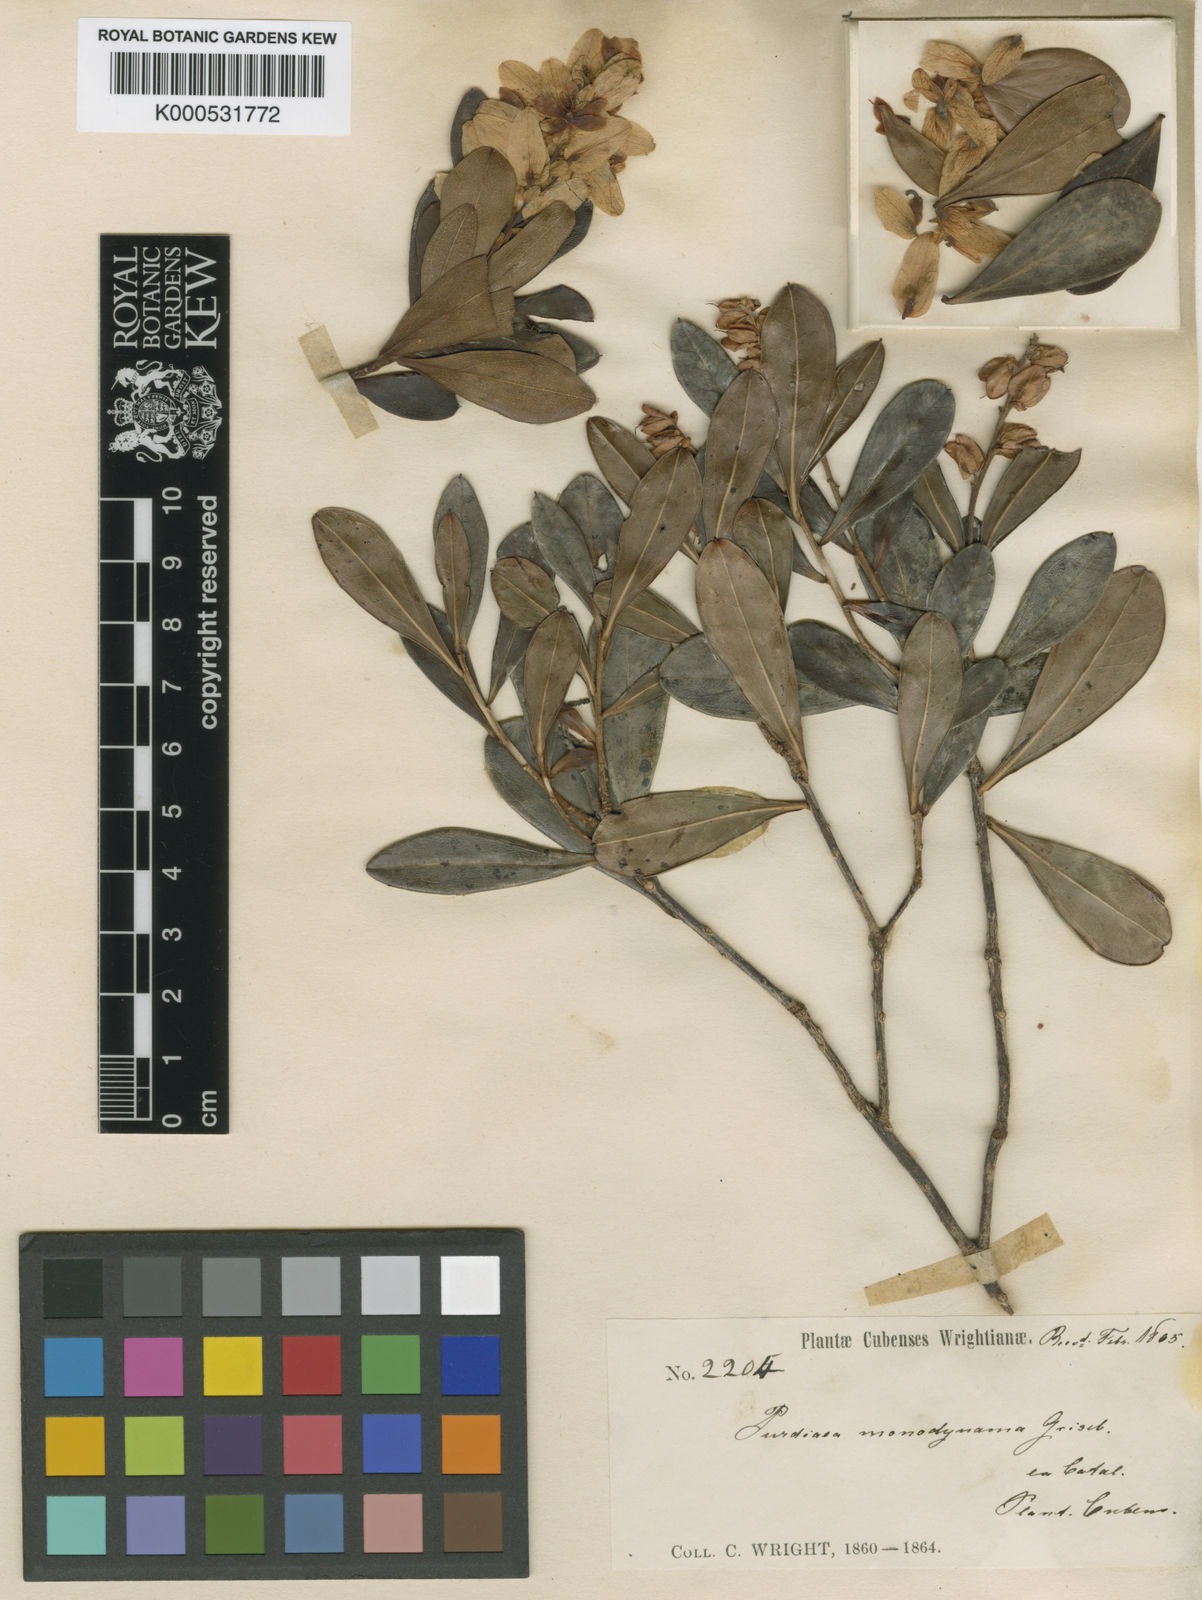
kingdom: Plantae
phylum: Tracheophyta
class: Magnoliopsida
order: Ericales
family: Clethraceae
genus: Purdiaea
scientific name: Purdiaea cubensis
